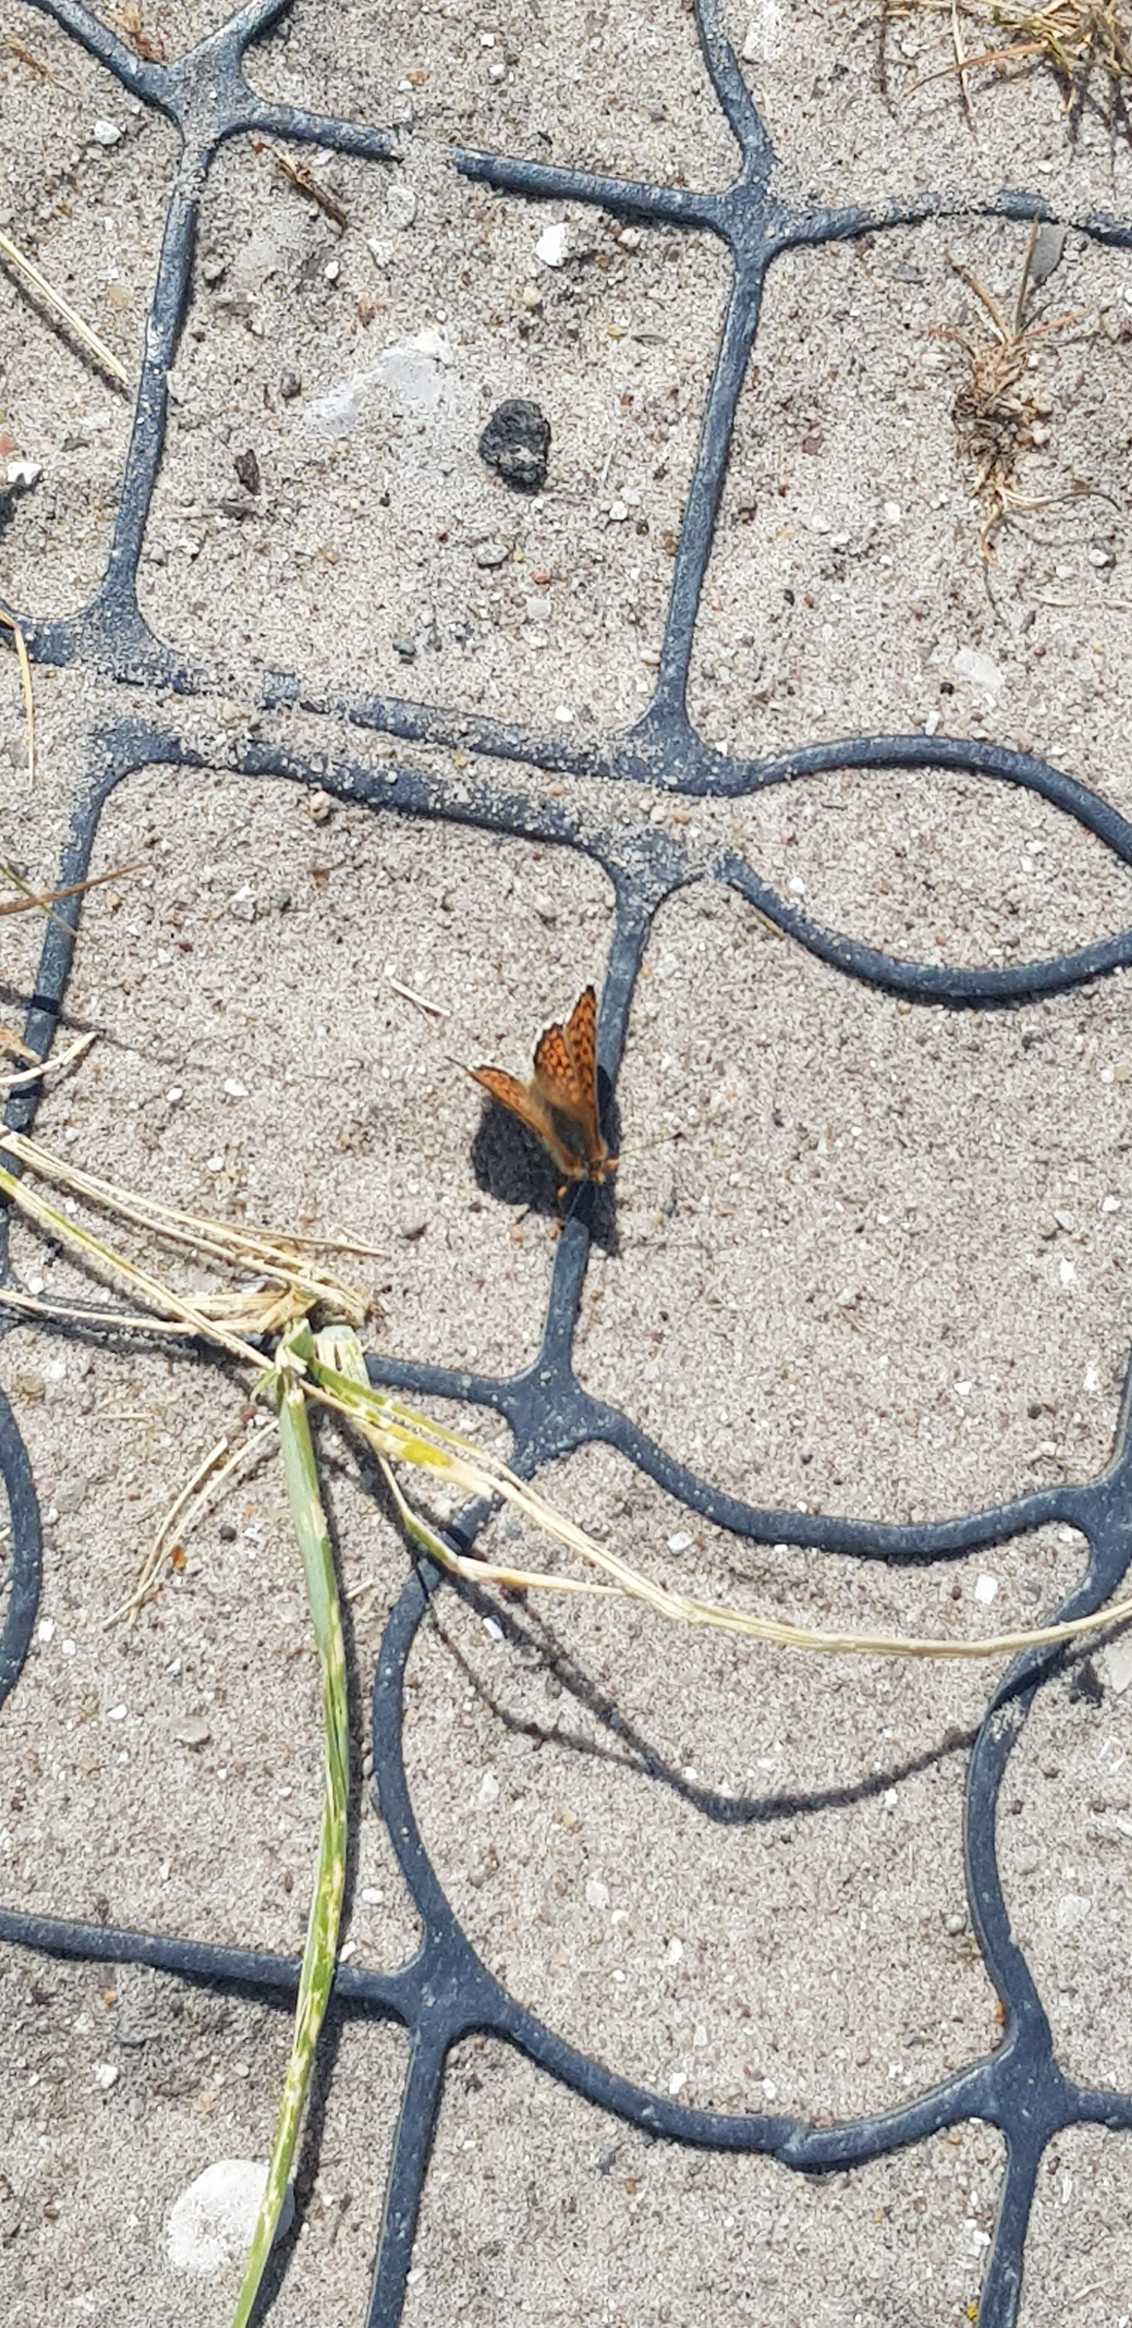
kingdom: Animalia
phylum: Arthropoda
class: Insecta
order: Lepidoptera
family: Nymphalidae
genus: Melitaea
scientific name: Melitaea cinxia
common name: Okkergul pletvinge
